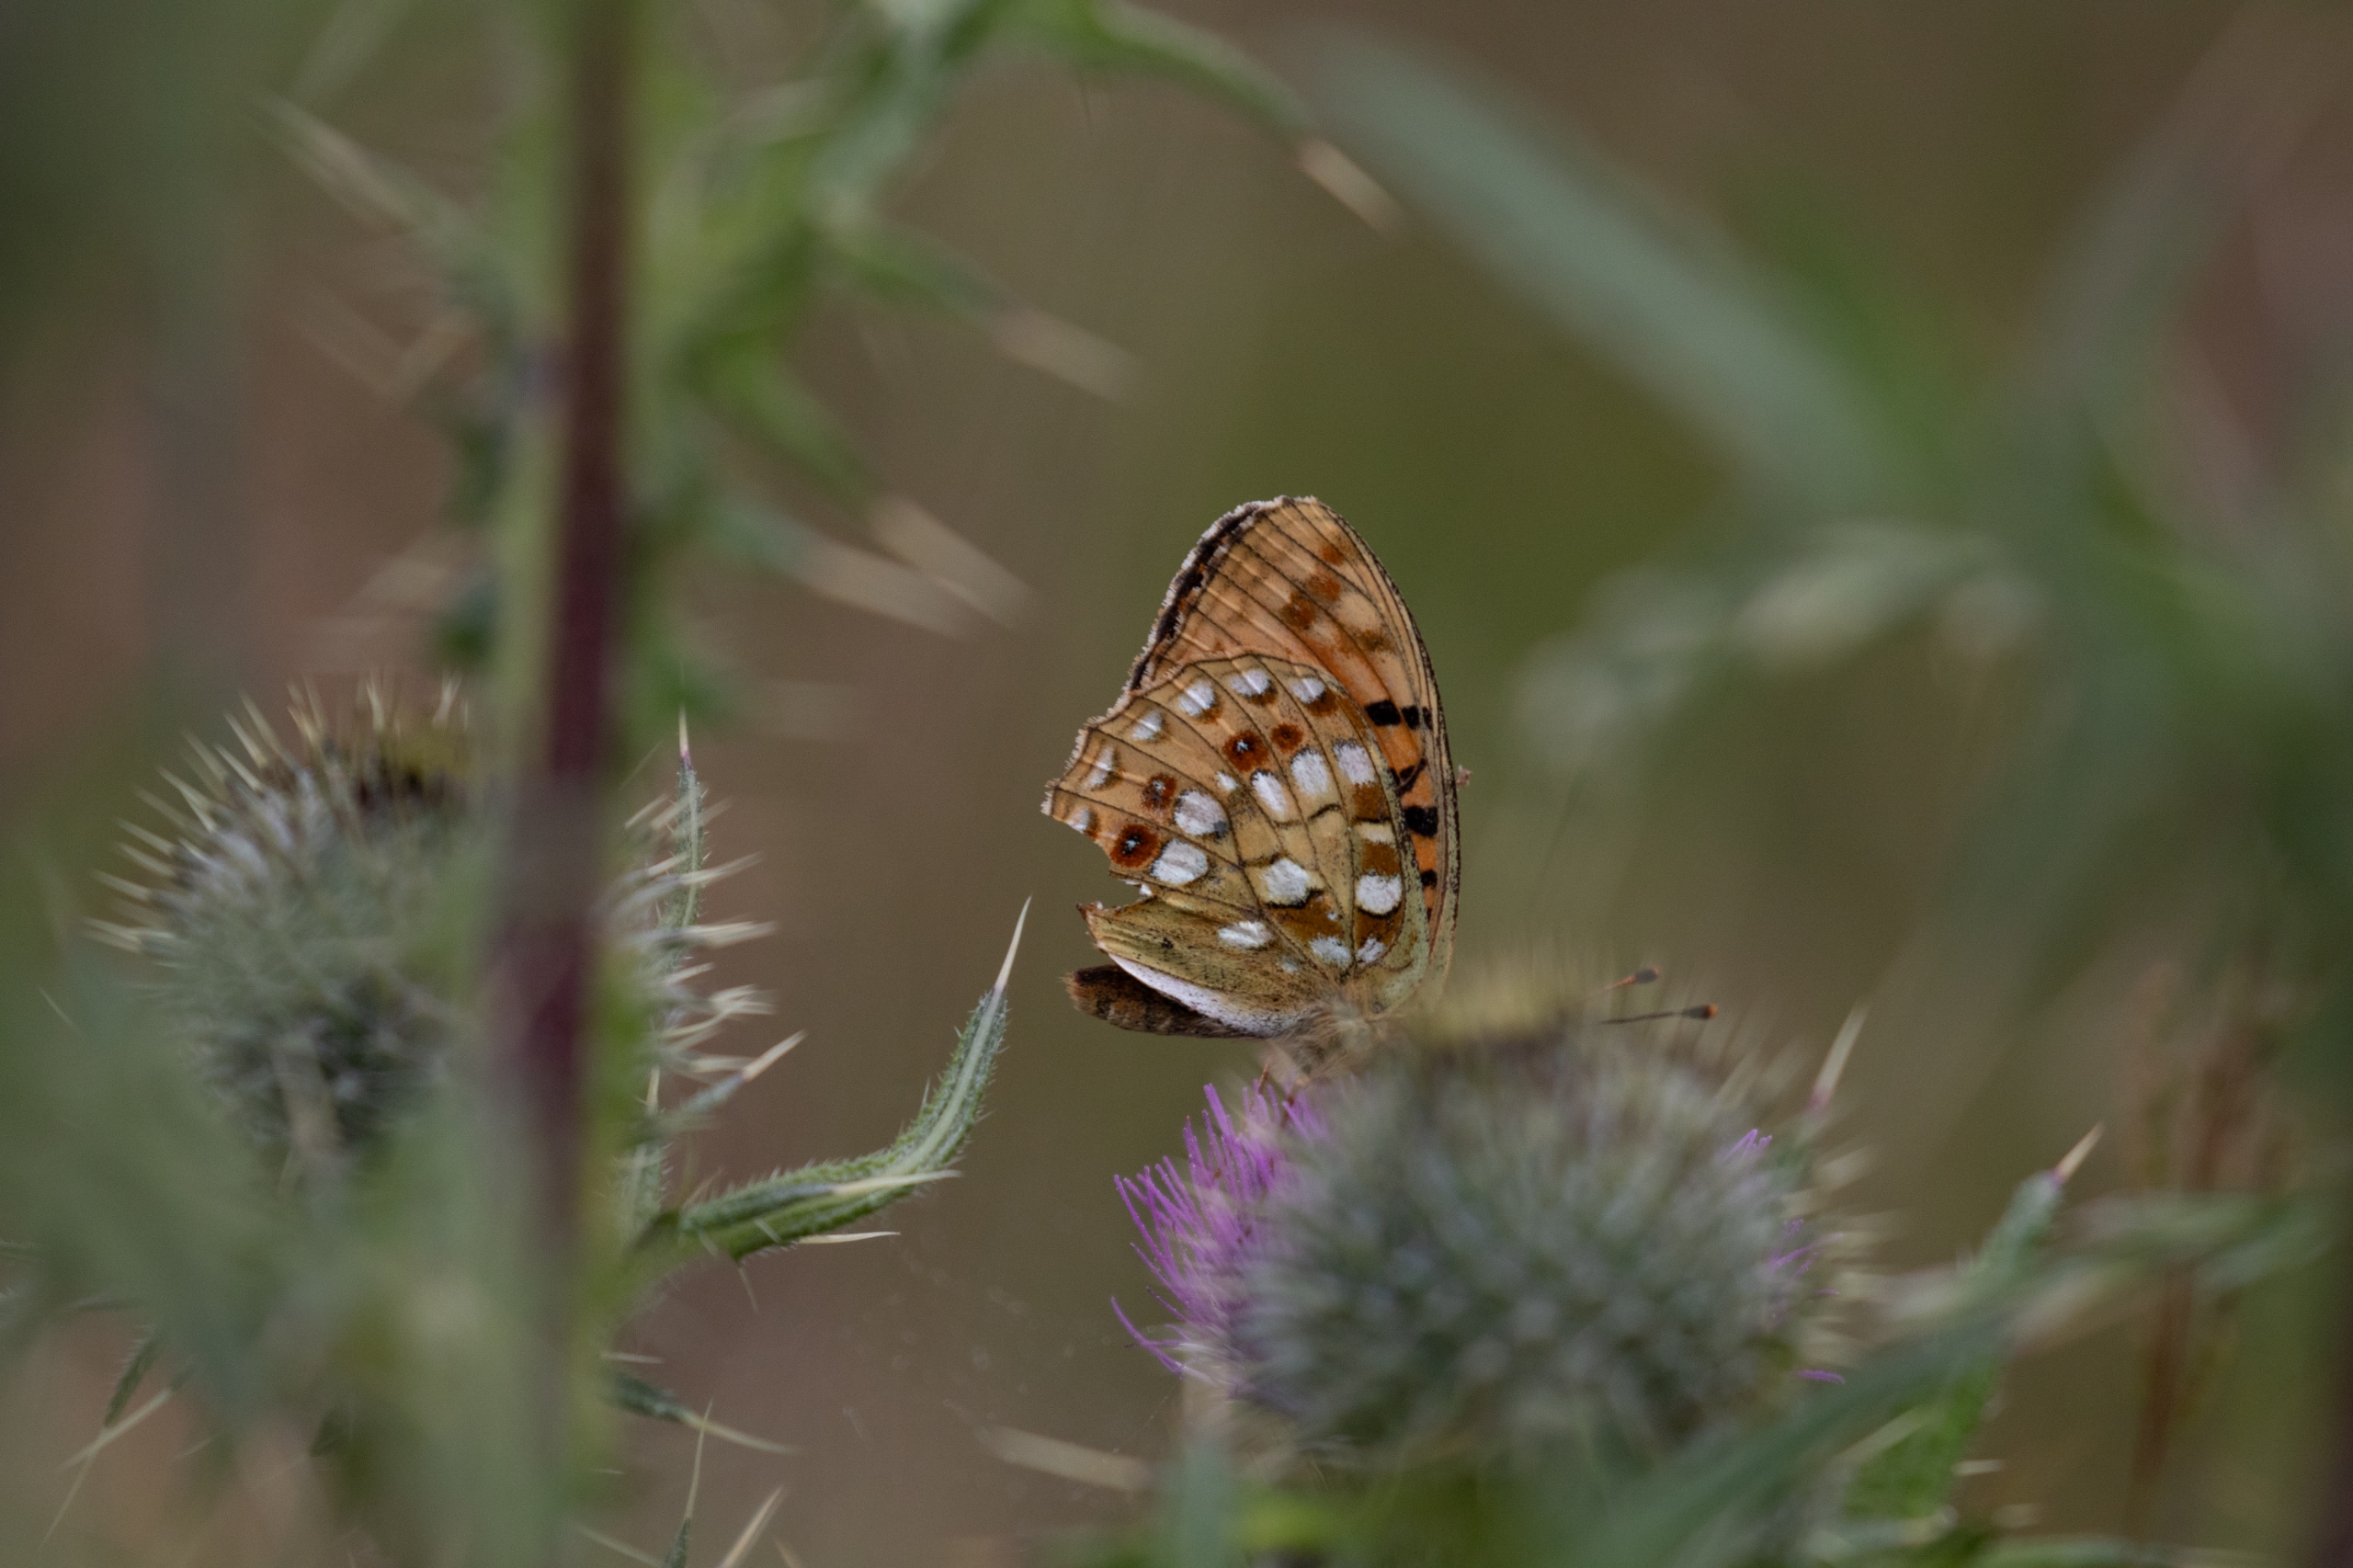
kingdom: Animalia
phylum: Arthropoda
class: Insecta
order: Lepidoptera
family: Nymphalidae
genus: Fabriciana
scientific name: Fabriciana adippe
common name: Skovperlemorsommerfugl
